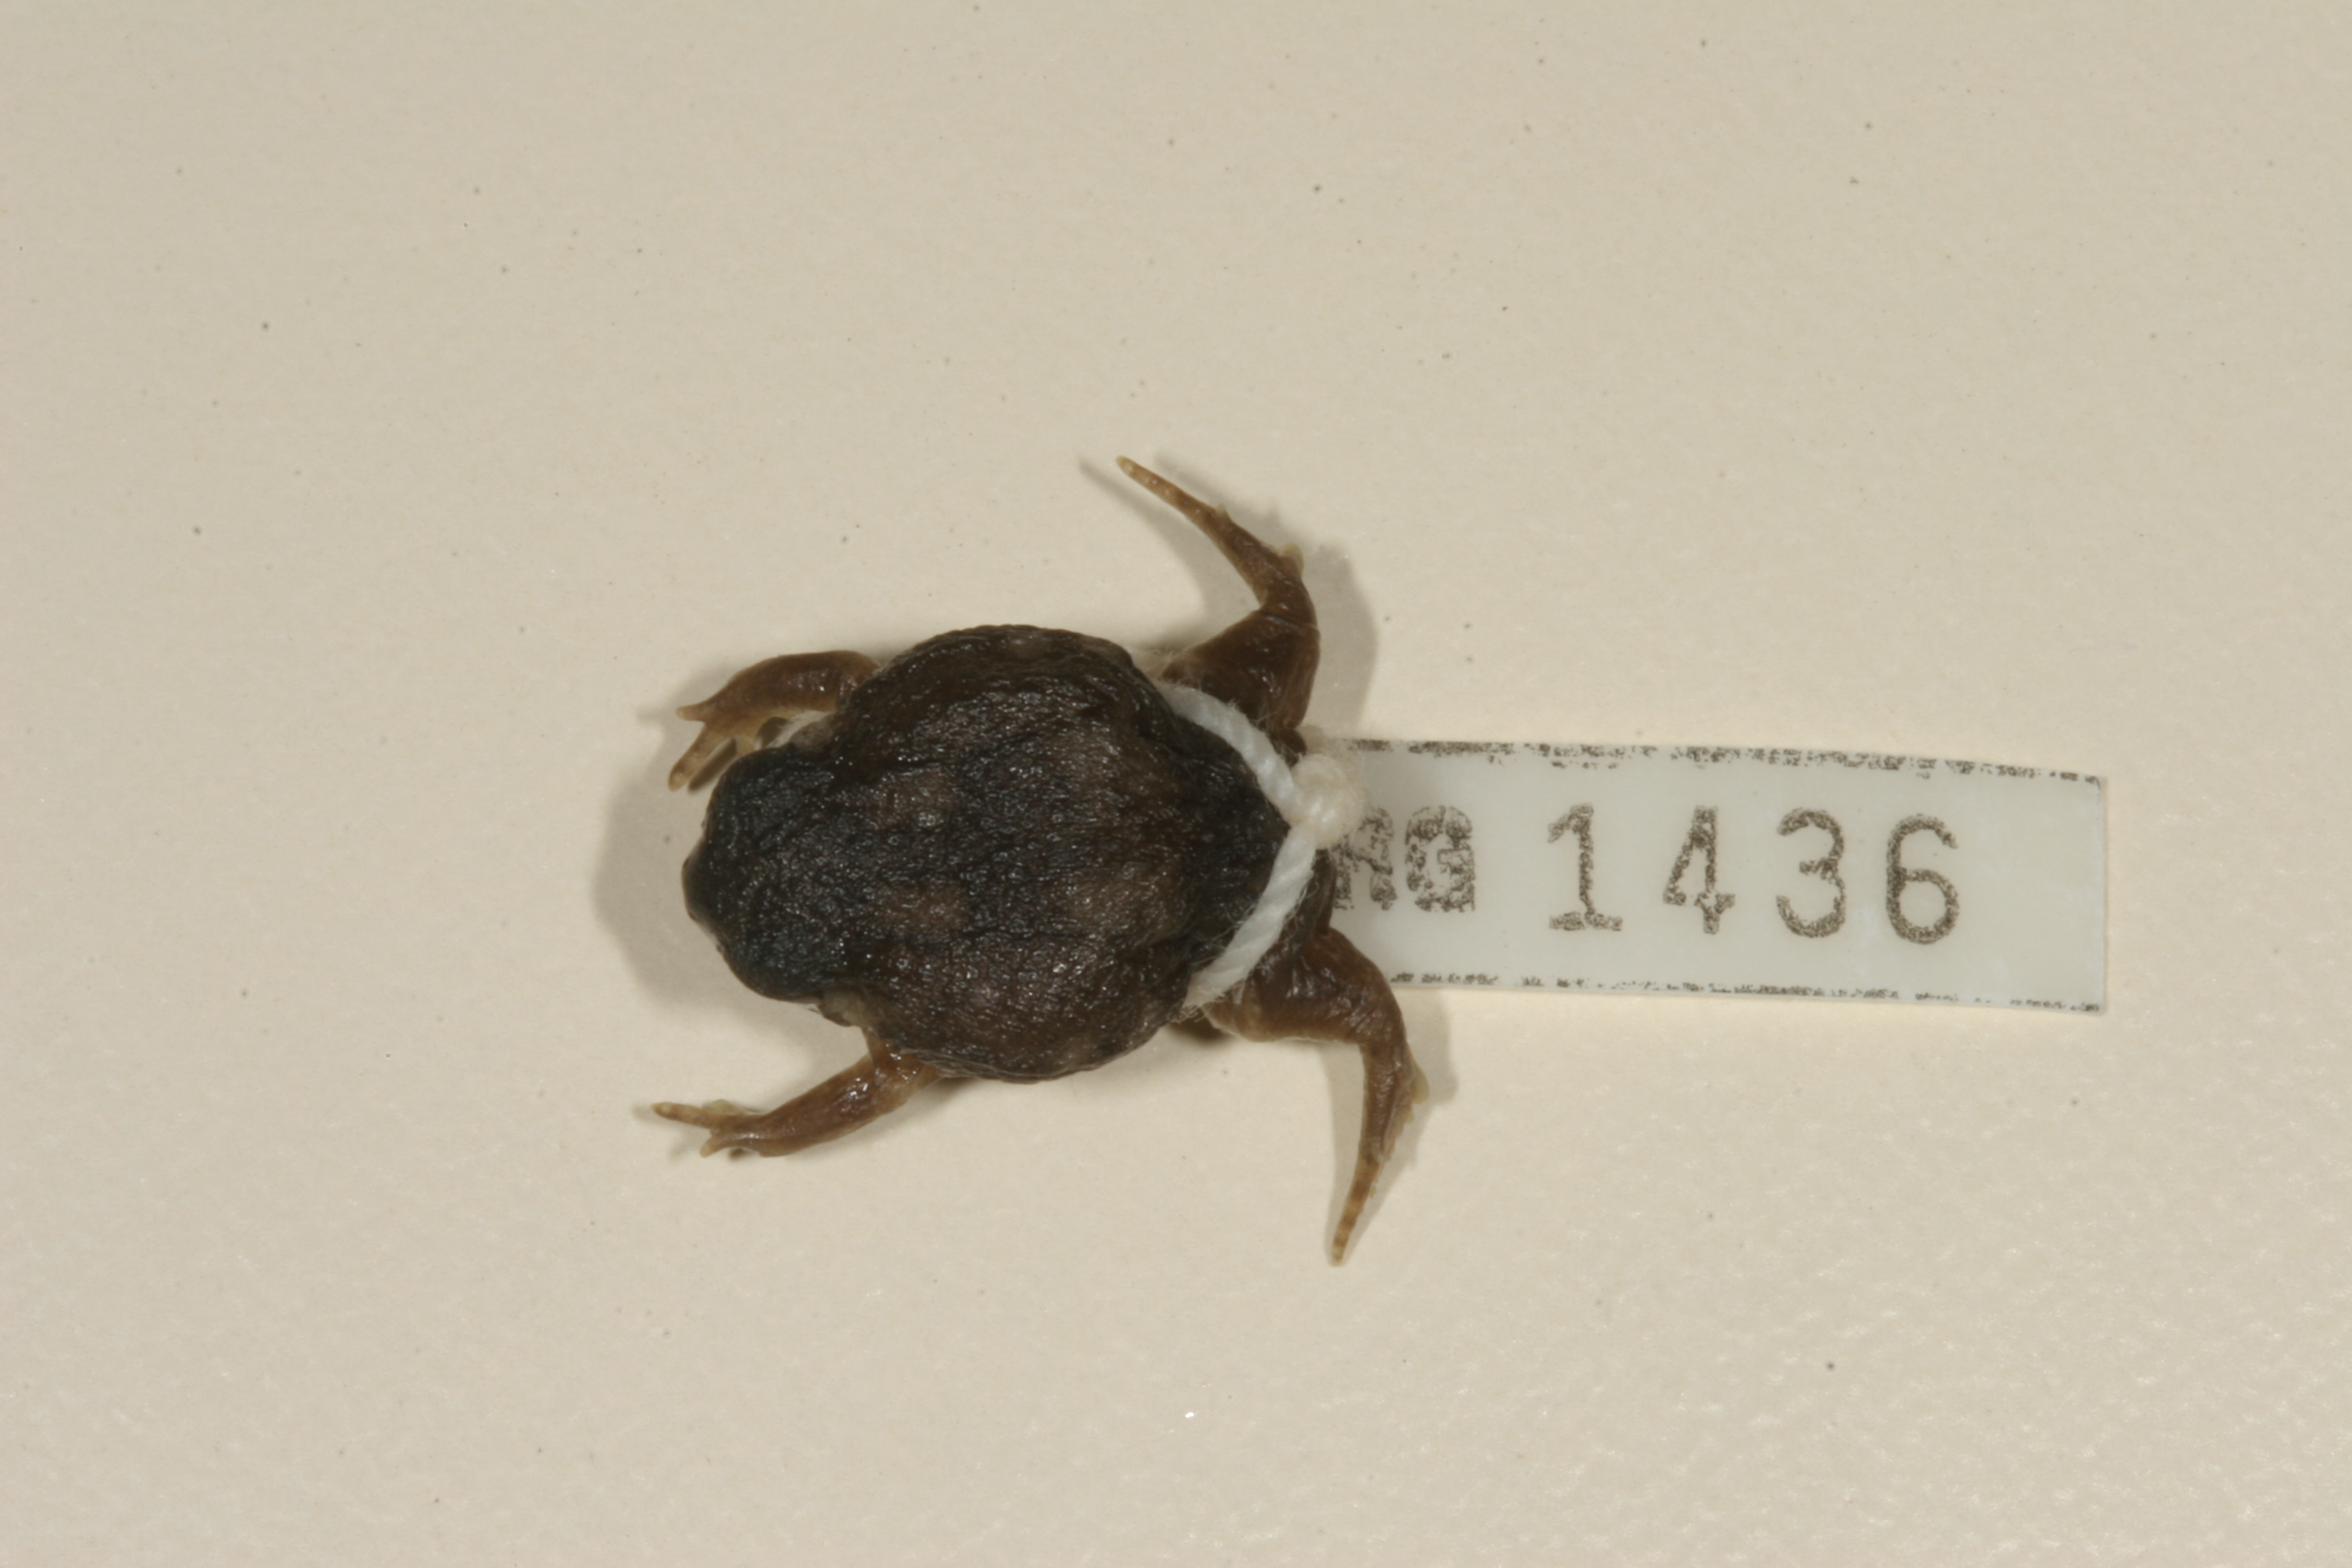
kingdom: Animalia
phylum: Chordata
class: Amphibia
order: Anura
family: Brevicipitidae
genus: Breviceps
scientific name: Breviceps adspersus
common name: Common rain frog
